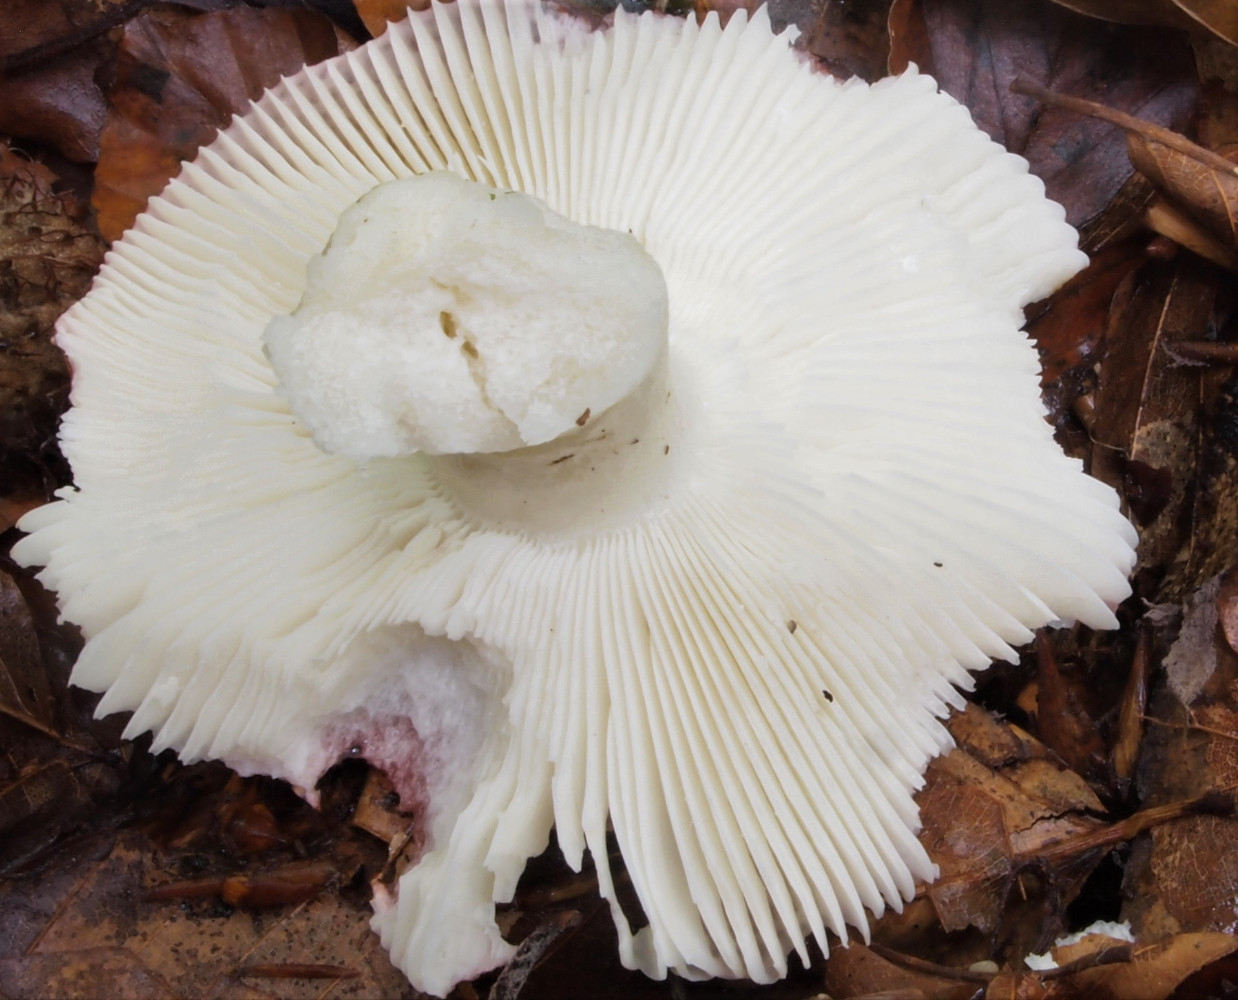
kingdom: Fungi
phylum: Basidiomycota
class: Agaricomycetes
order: Russulales
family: Russulaceae
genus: Russula
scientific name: Russula silvestris
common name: mellemstor gift-skørhat
